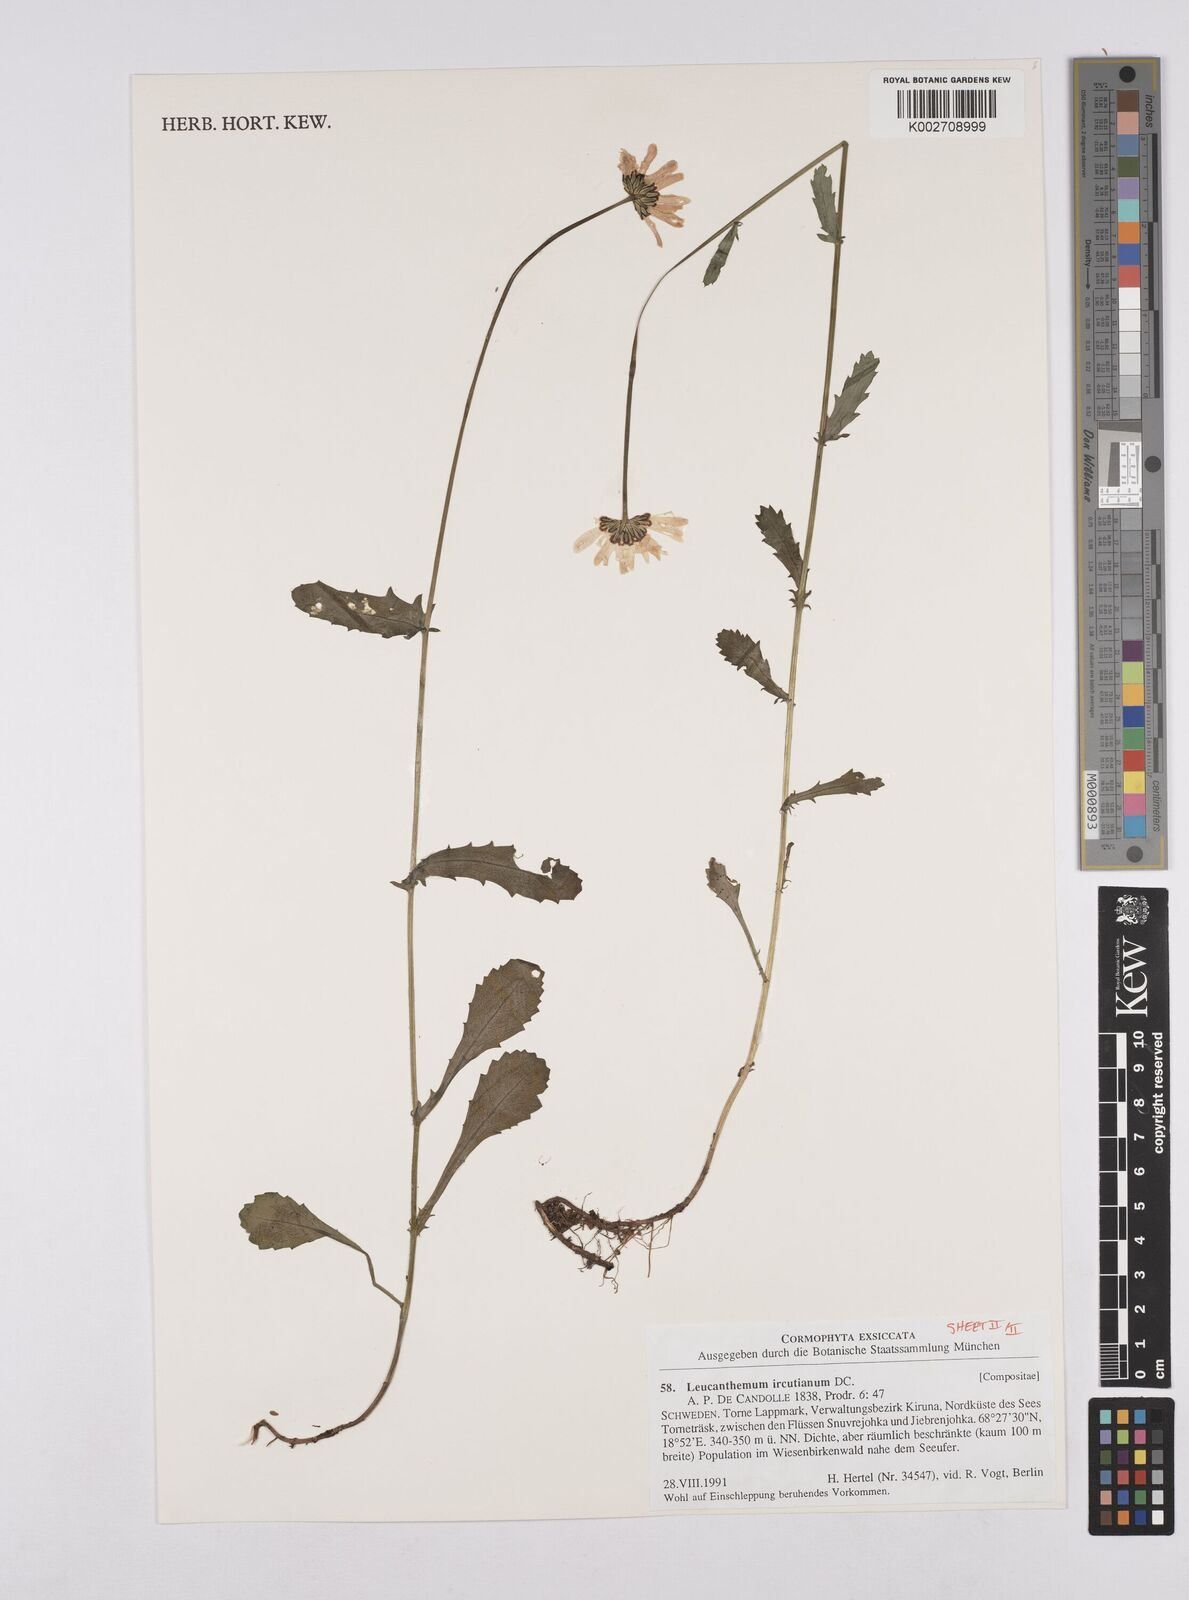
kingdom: Plantae
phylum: Tracheophyta
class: Magnoliopsida
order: Asterales
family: Asteraceae
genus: Leucanthemum
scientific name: Leucanthemum ircutianum
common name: Daisy
